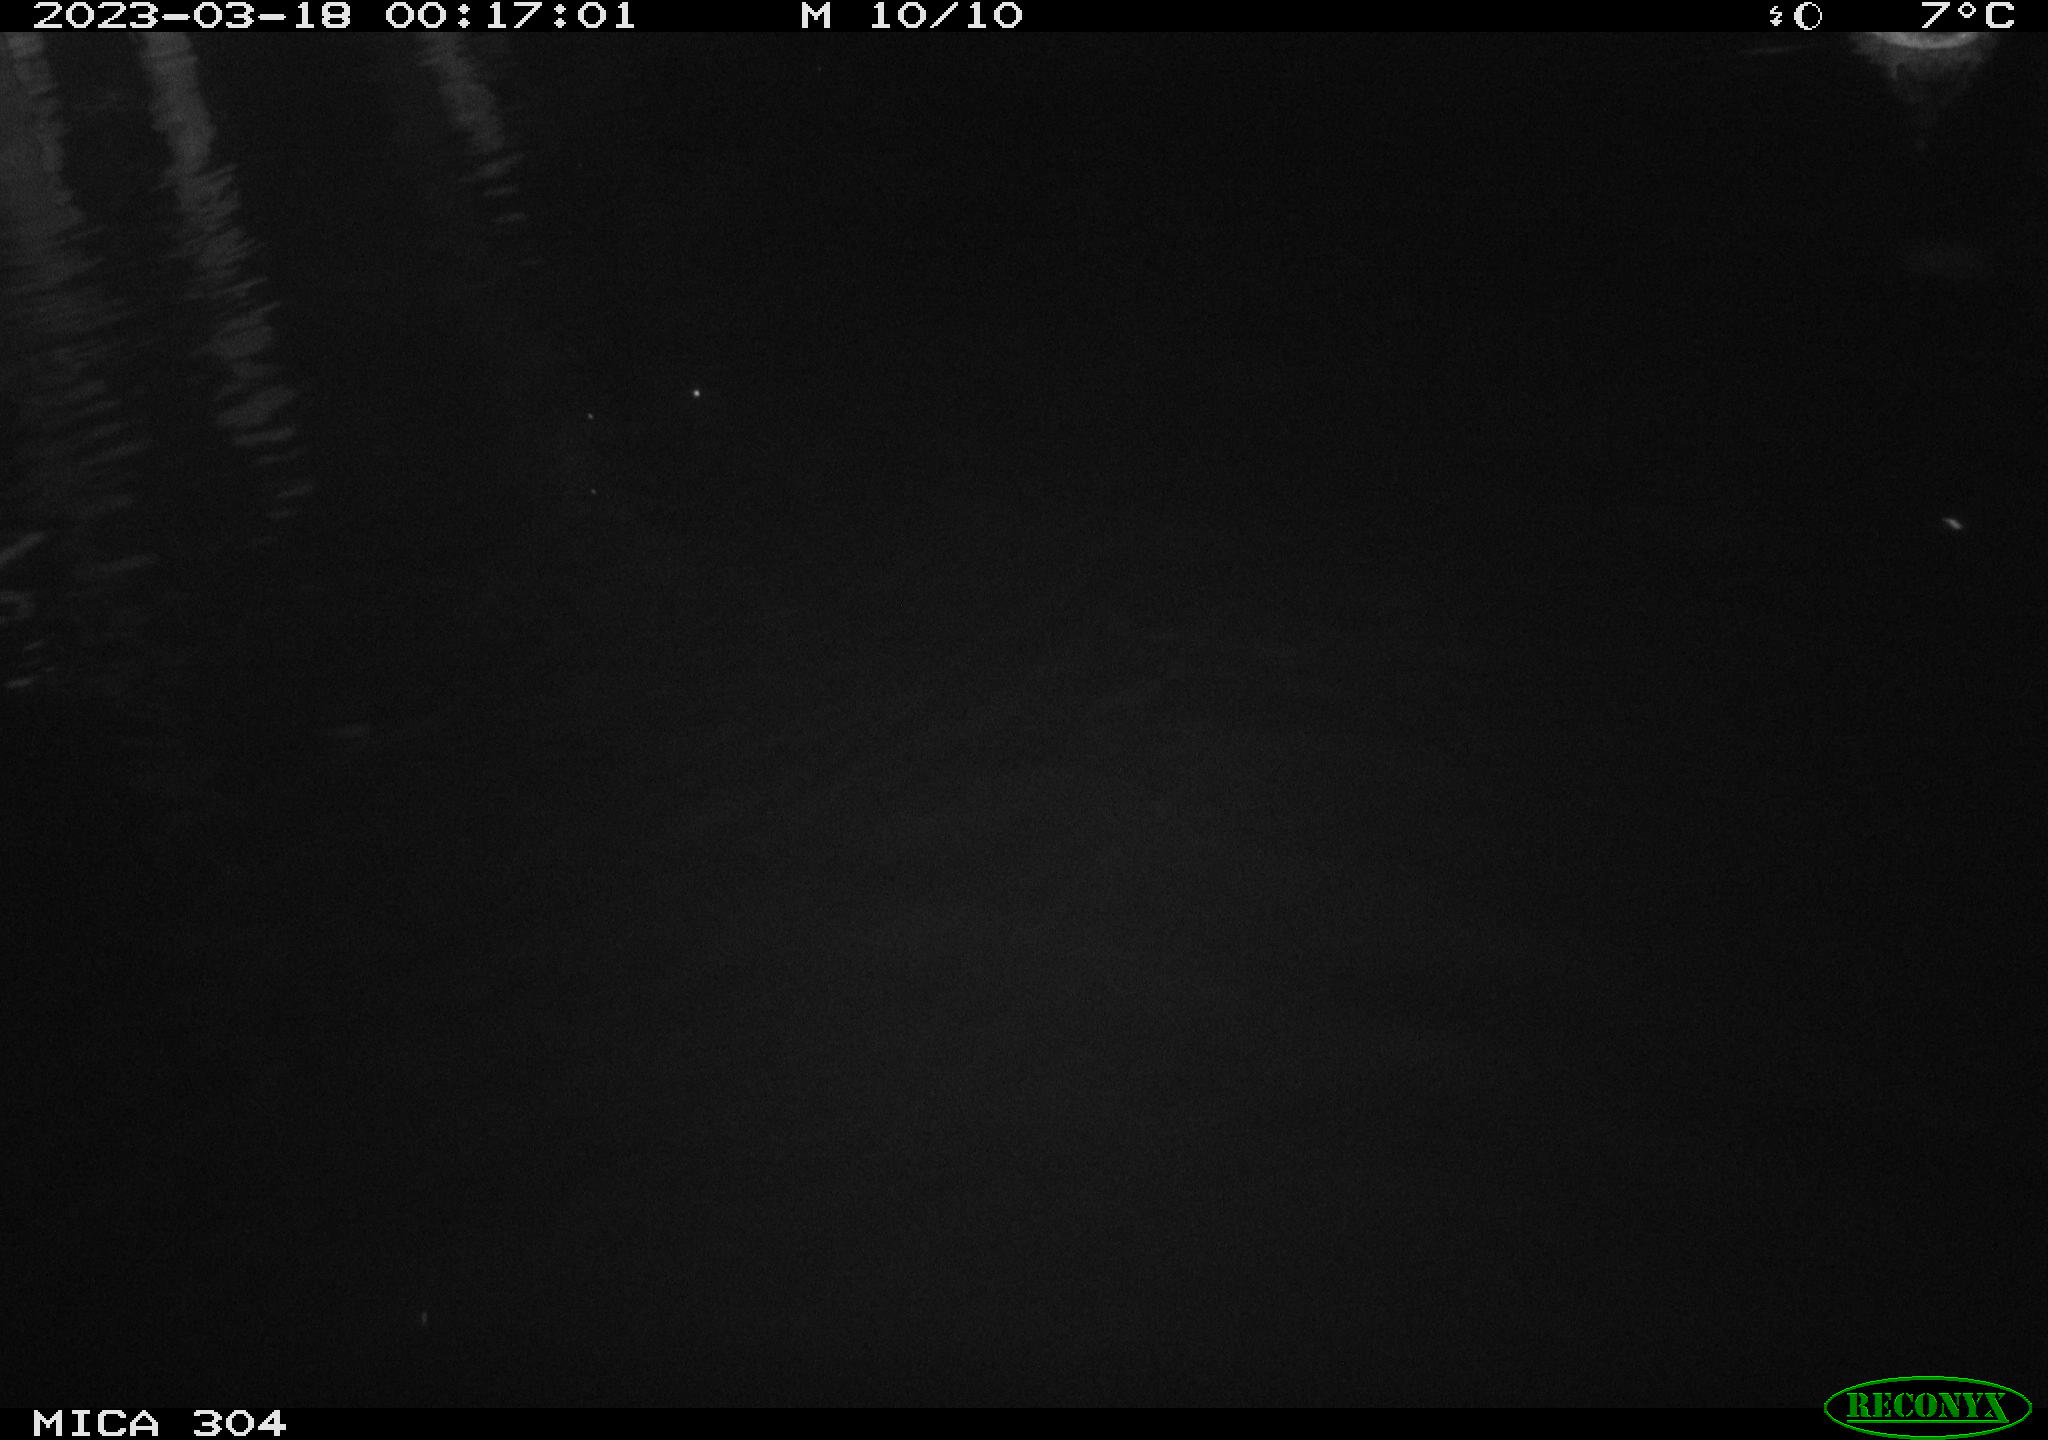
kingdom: Animalia
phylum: Chordata
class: Aves
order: Anseriformes
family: Anatidae
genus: Anas
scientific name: Anas
